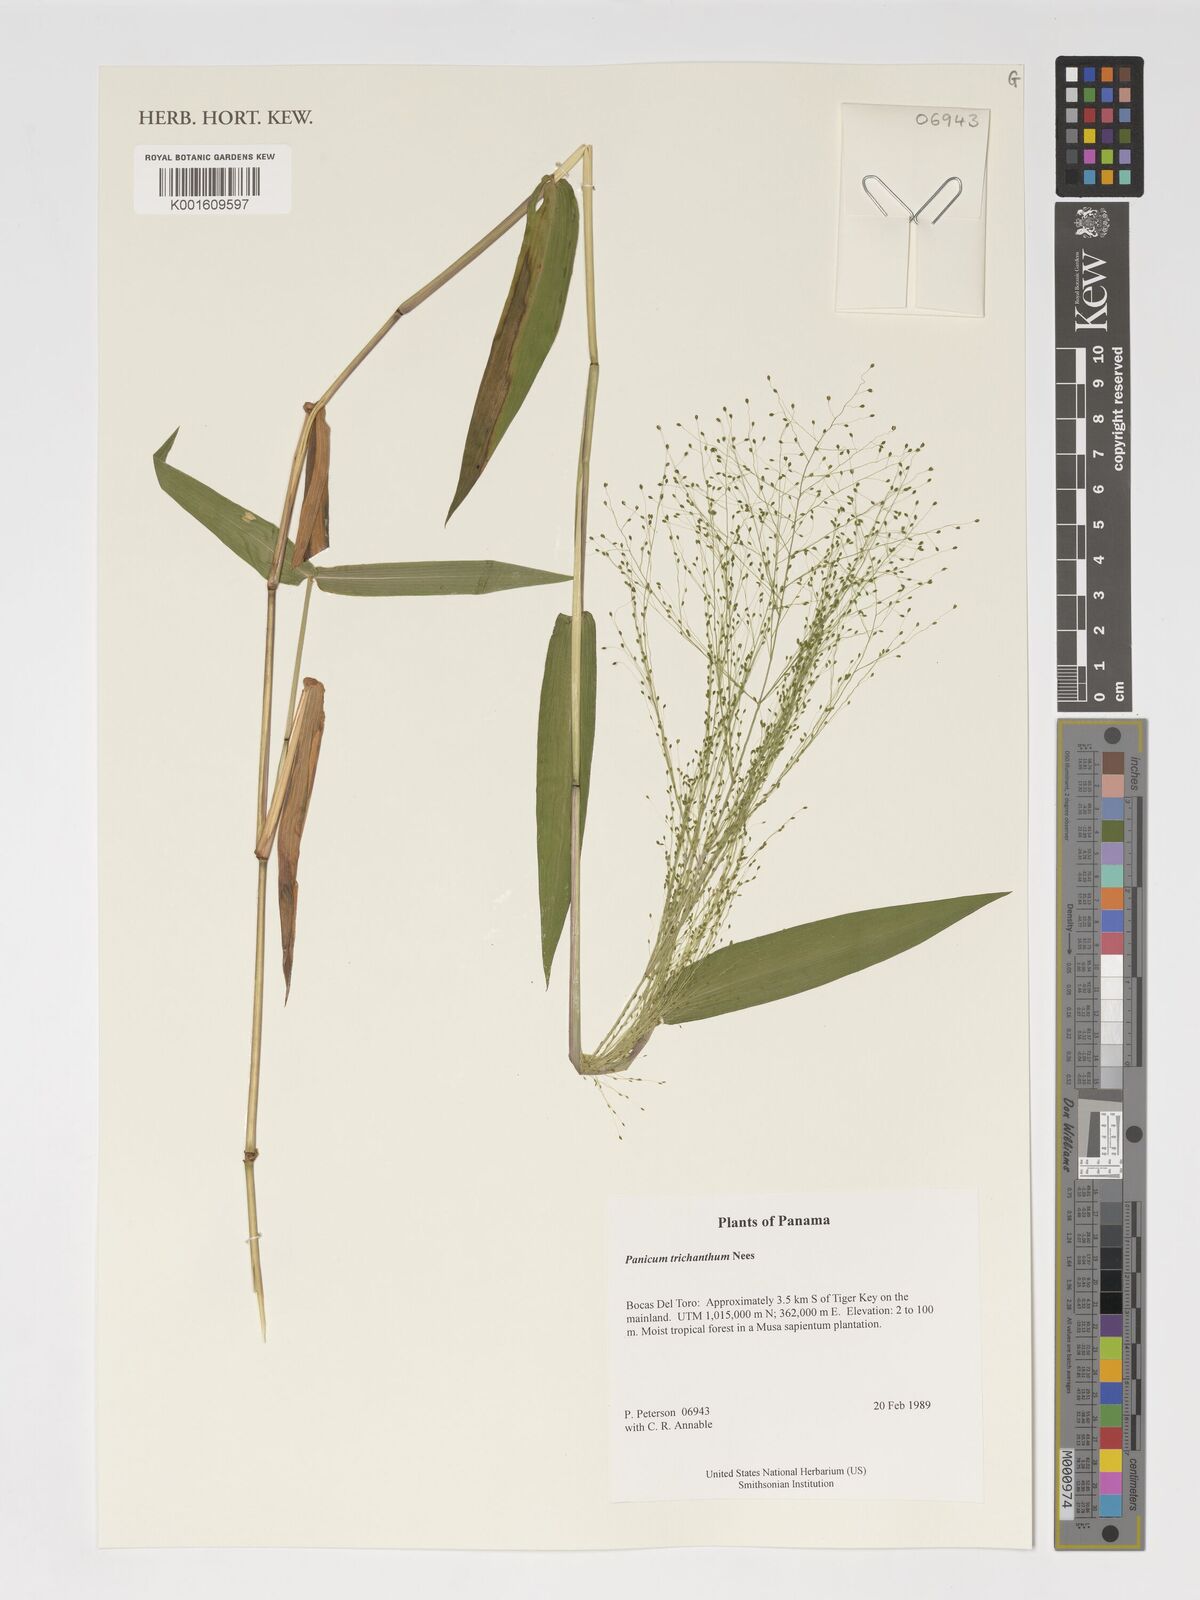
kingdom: Plantae
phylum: Tracheophyta
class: Liliopsida
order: Poales
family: Poaceae
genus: Panicum
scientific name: Panicum trichanthum
